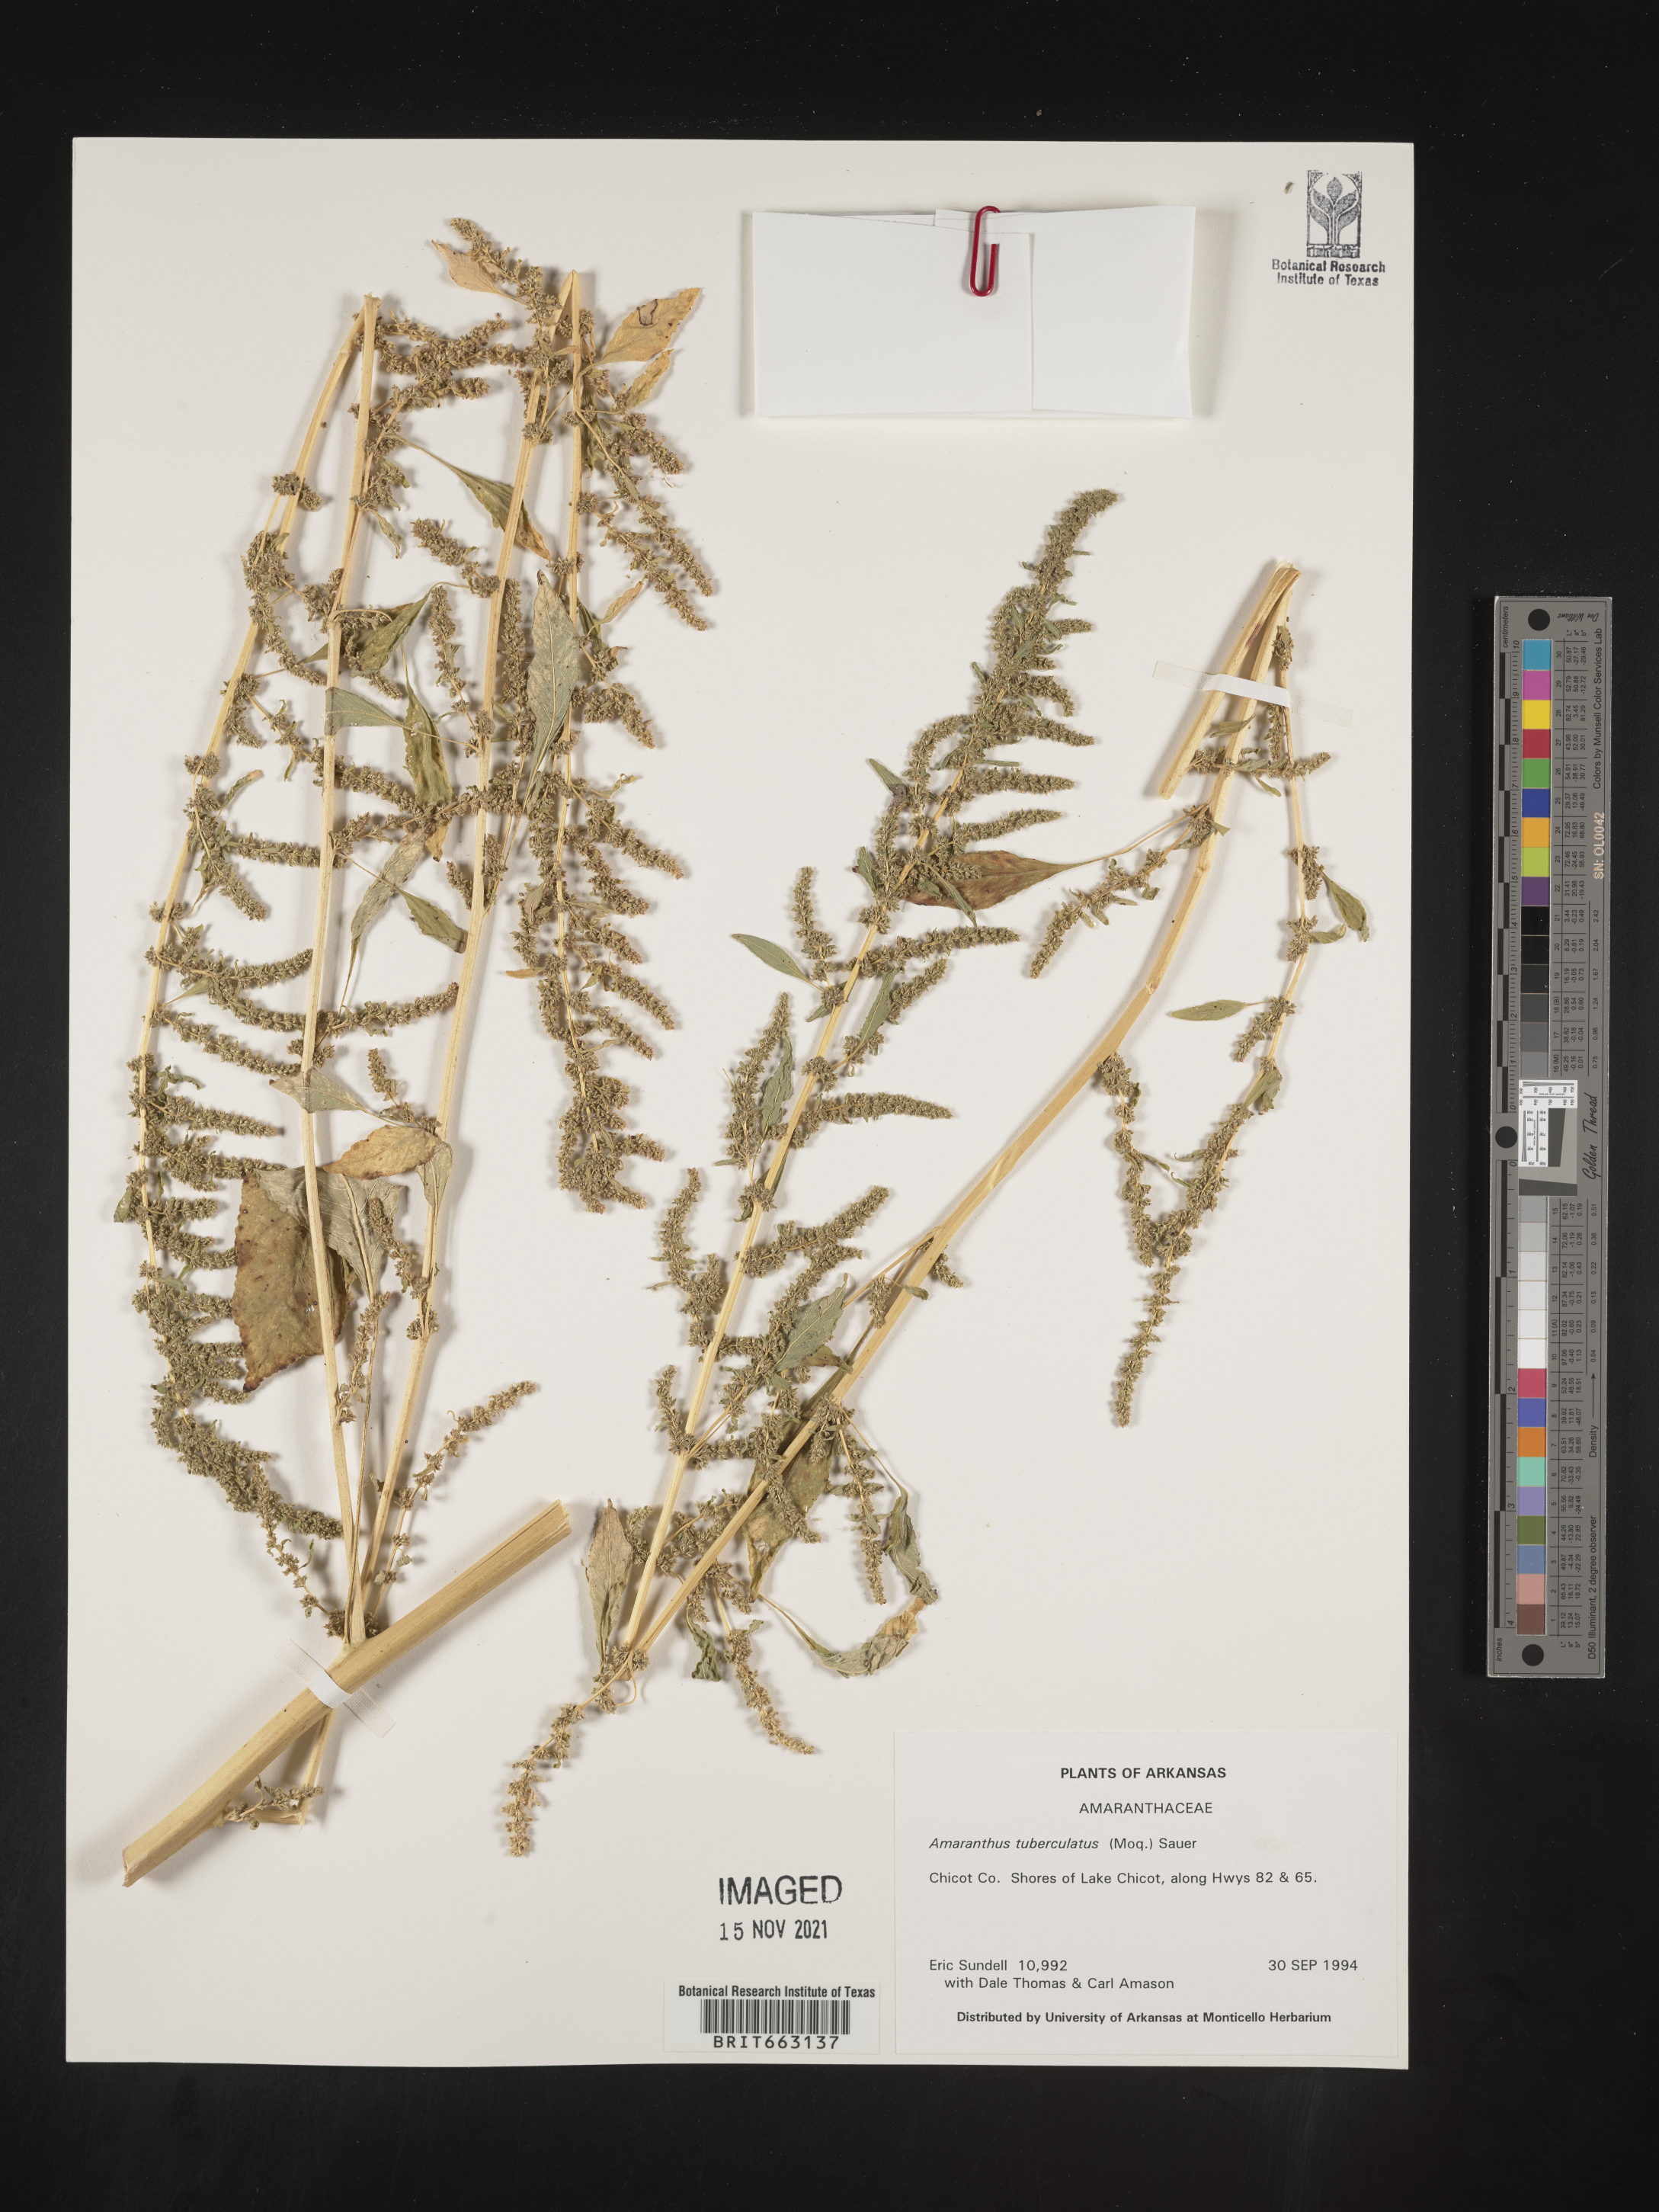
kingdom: Plantae
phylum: Tracheophyta
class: Magnoliopsida
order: Caryophyllales
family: Amaranthaceae
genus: Amaranthus
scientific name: Amaranthus tuberculatus
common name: Rough-fruit amaranth
